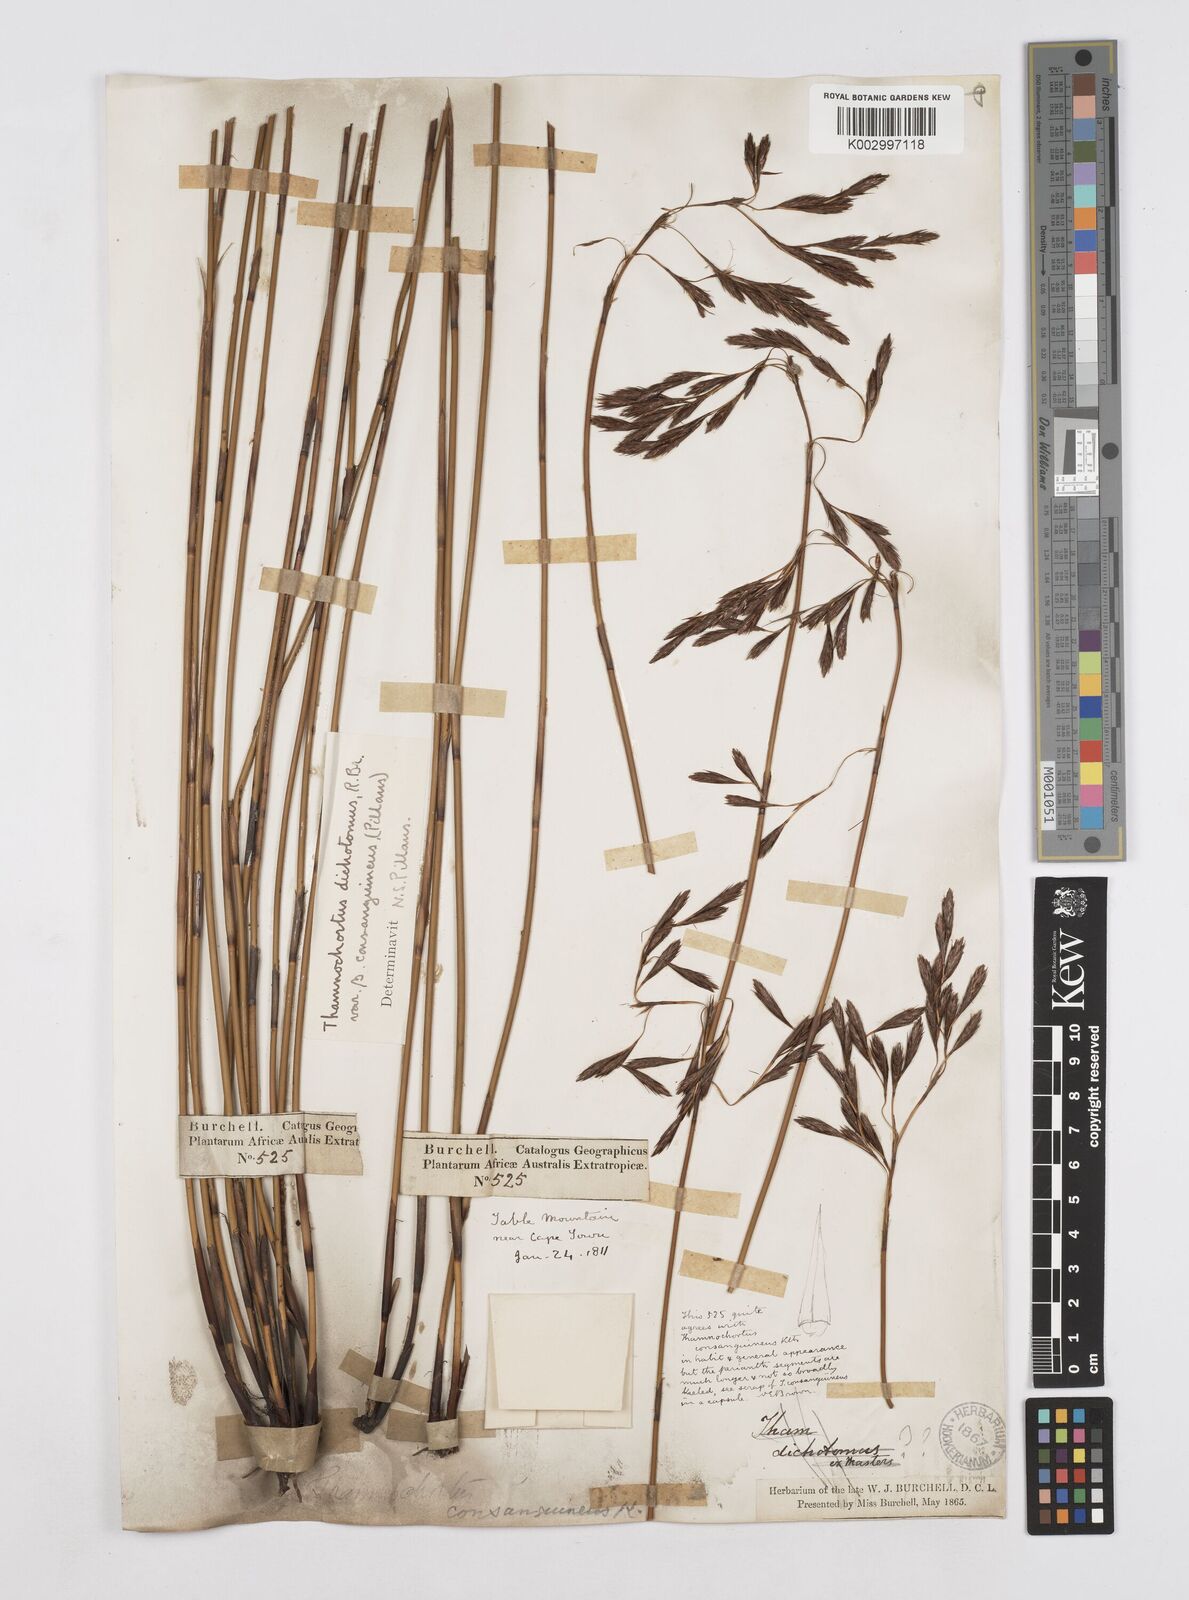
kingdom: Plantae
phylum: Tracheophyta
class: Liliopsida
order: Poales
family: Restionaceae
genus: Thamnochortus
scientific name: Thamnochortus nutans
